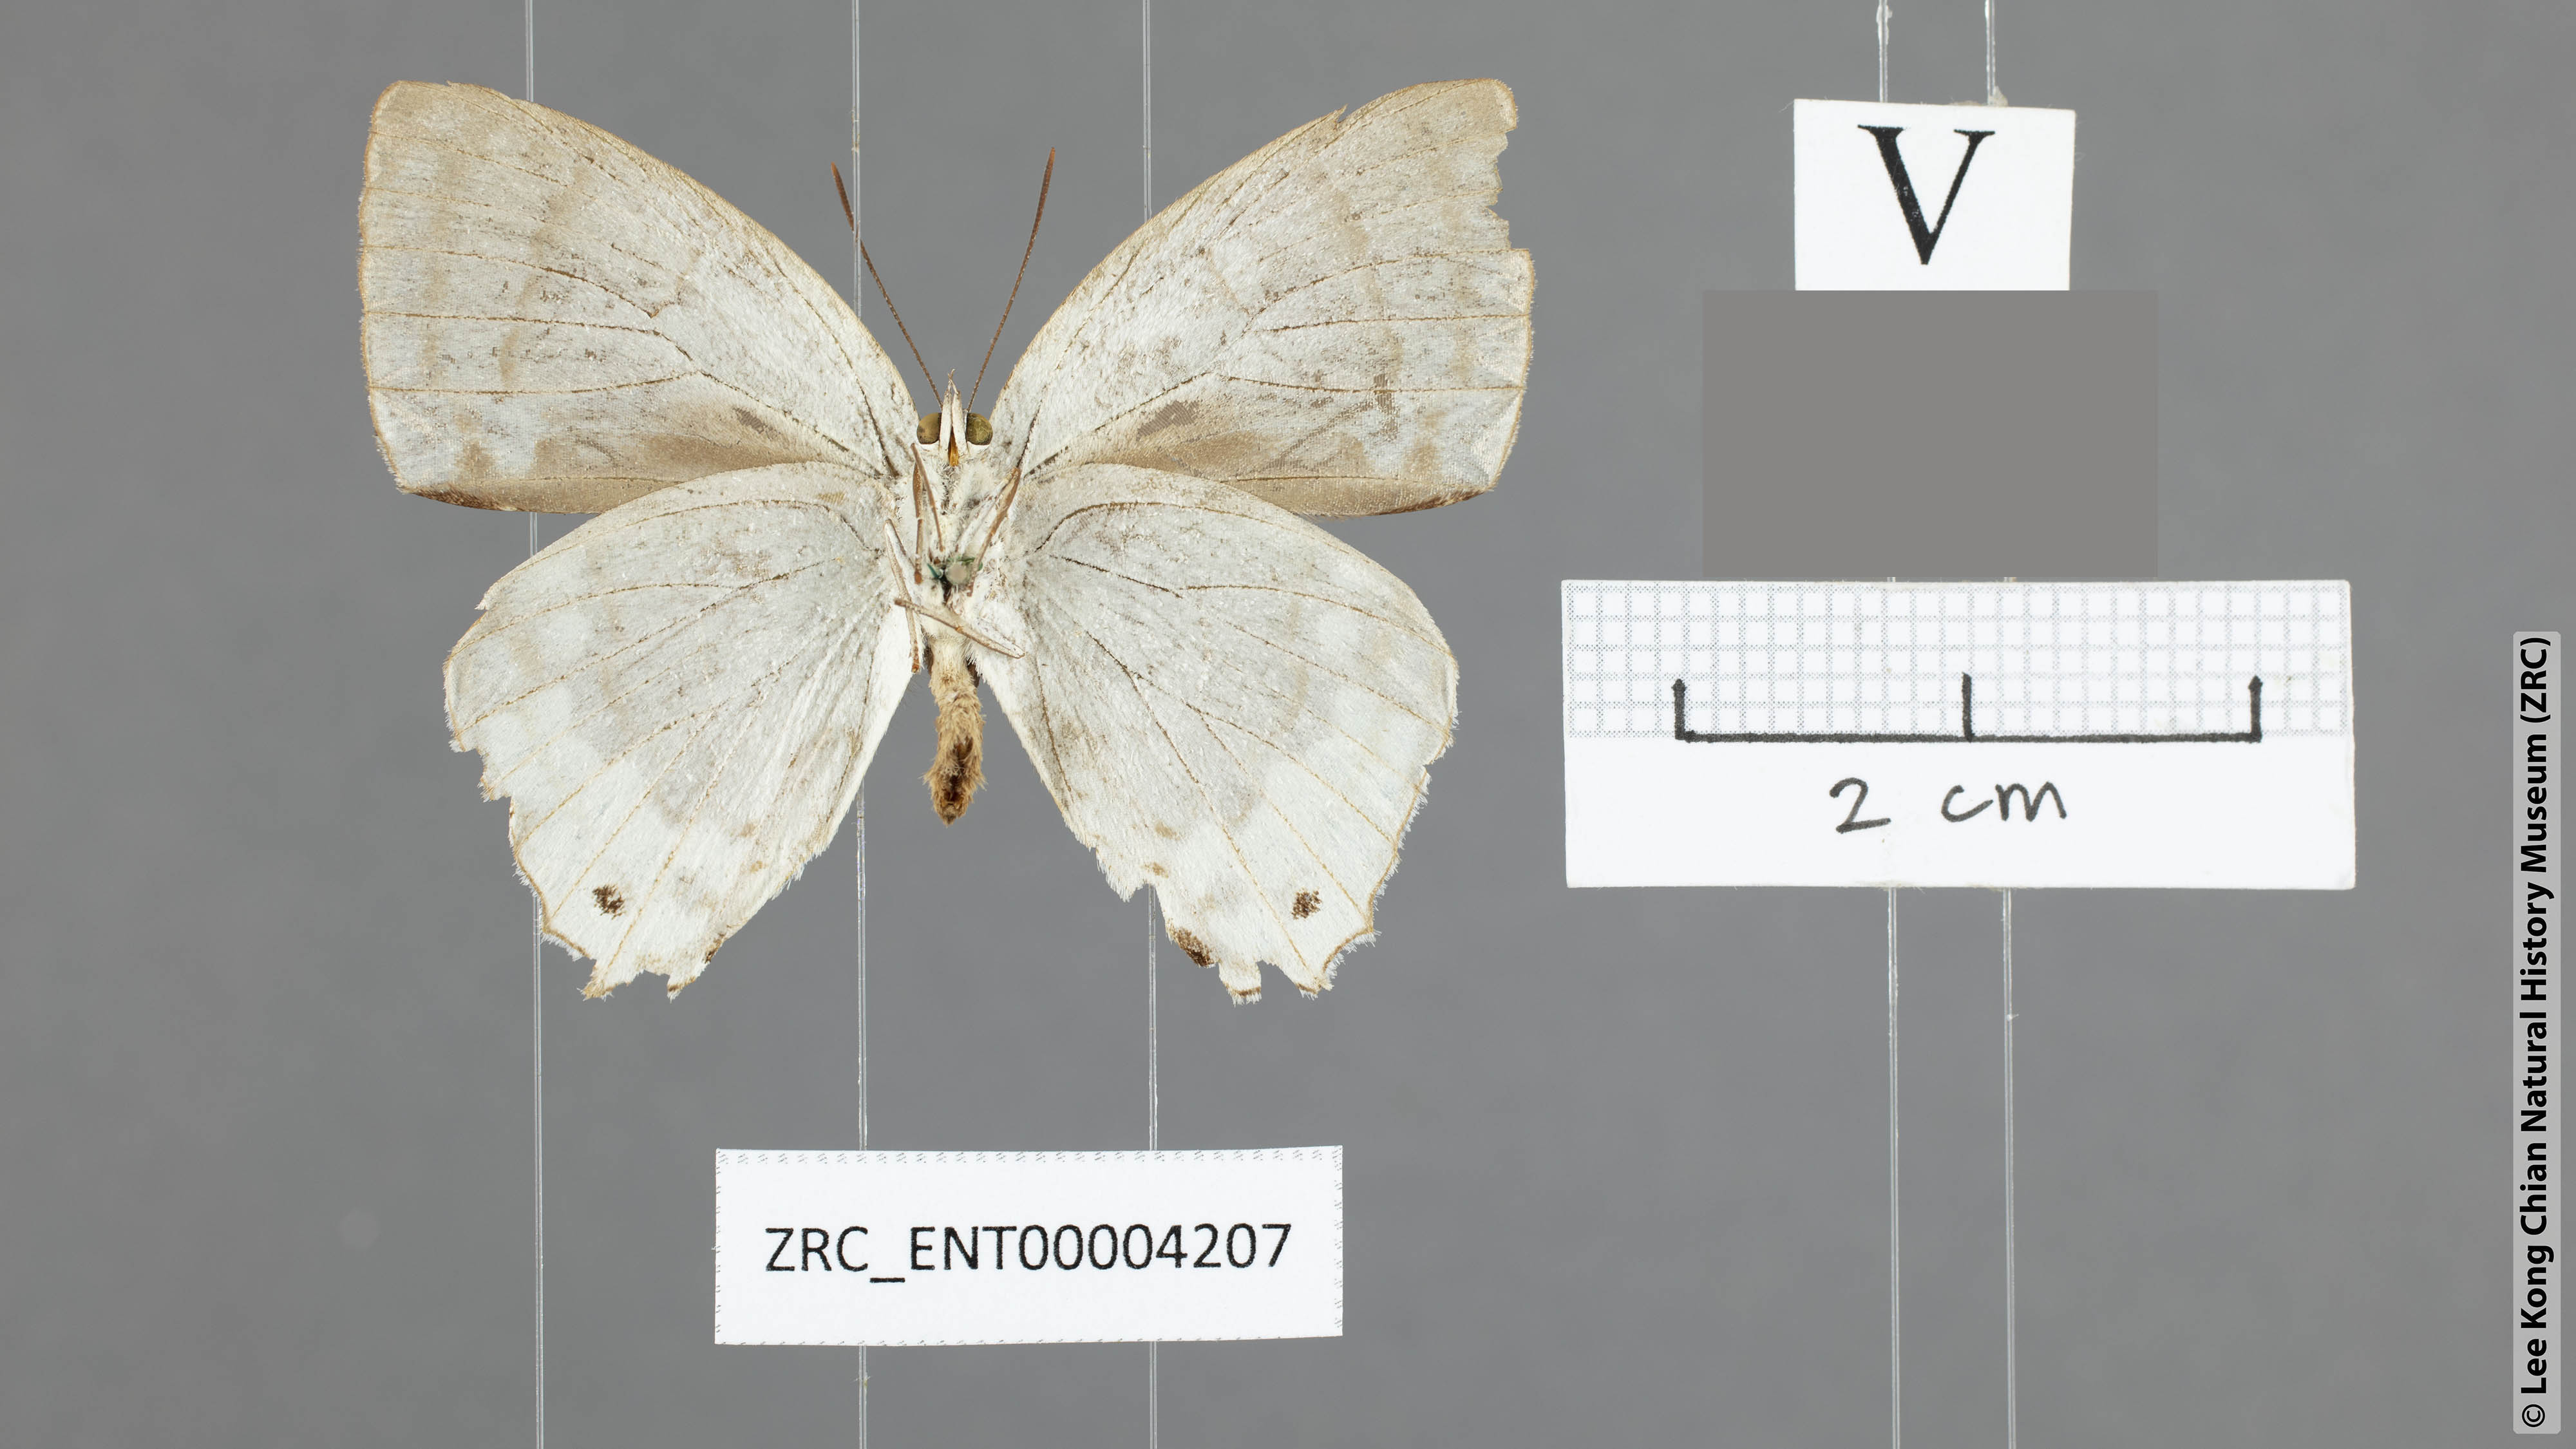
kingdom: Animalia
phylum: Arthropoda
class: Insecta
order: Lepidoptera
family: Lycaenidae
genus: Drina
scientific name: Drina cowani
